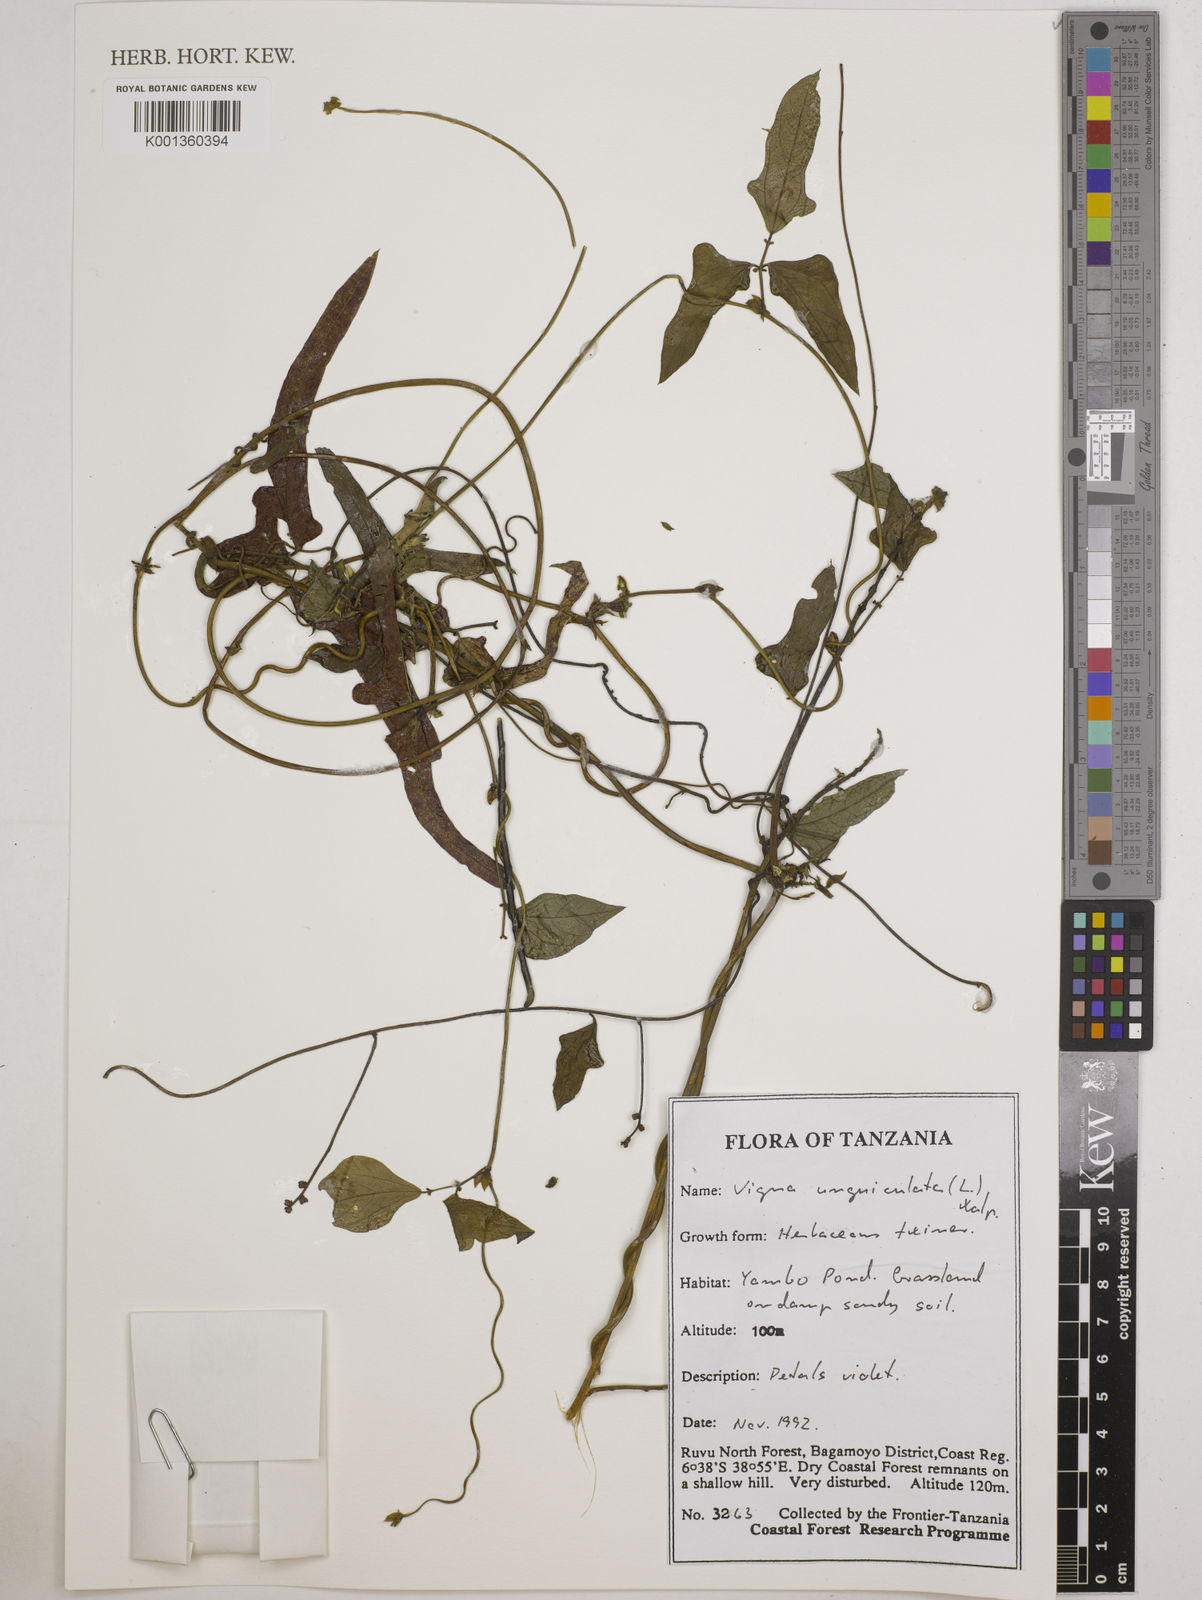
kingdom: Plantae
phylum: Tracheophyta
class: Magnoliopsida
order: Fabales
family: Fabaceae
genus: Vigna
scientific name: Vigna unguiculata
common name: Cowpea
